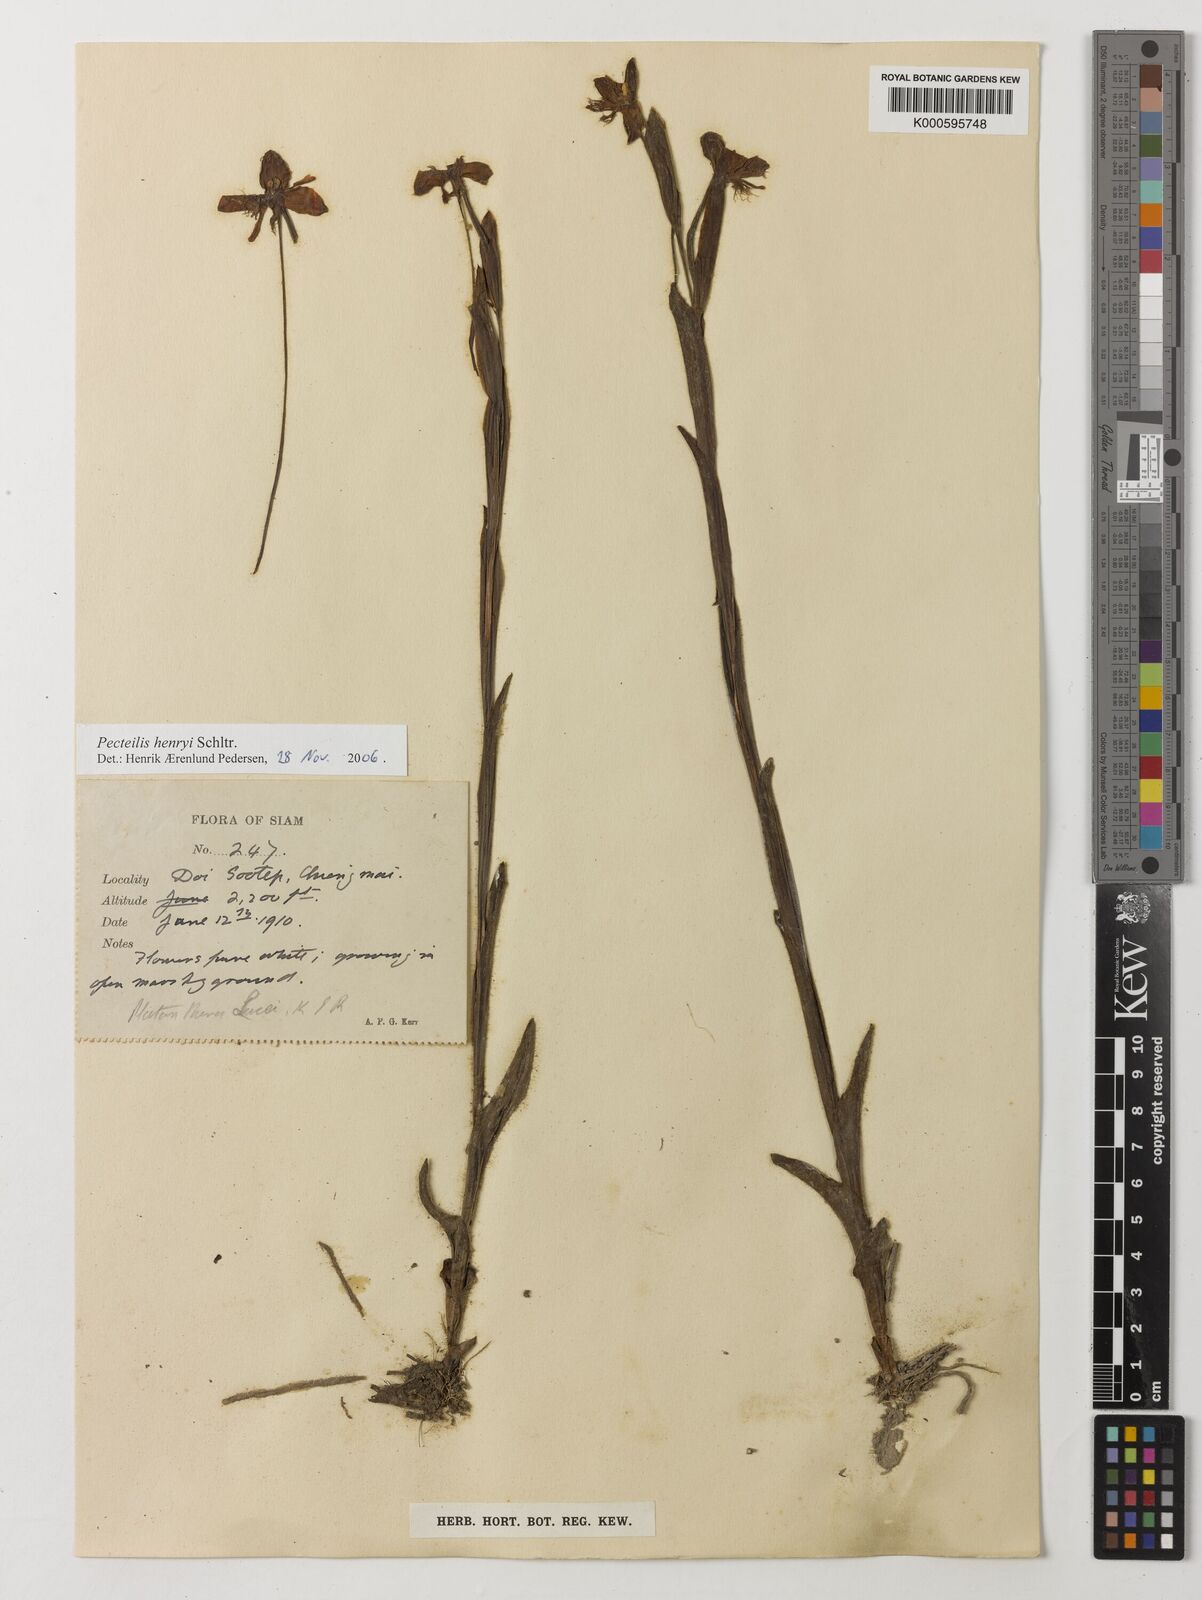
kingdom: Plantae
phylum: Tracheophyta
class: Liliopsida
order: Asparagales
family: Orchidaceae
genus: Pecteilis
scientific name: Pecteilis henryi
